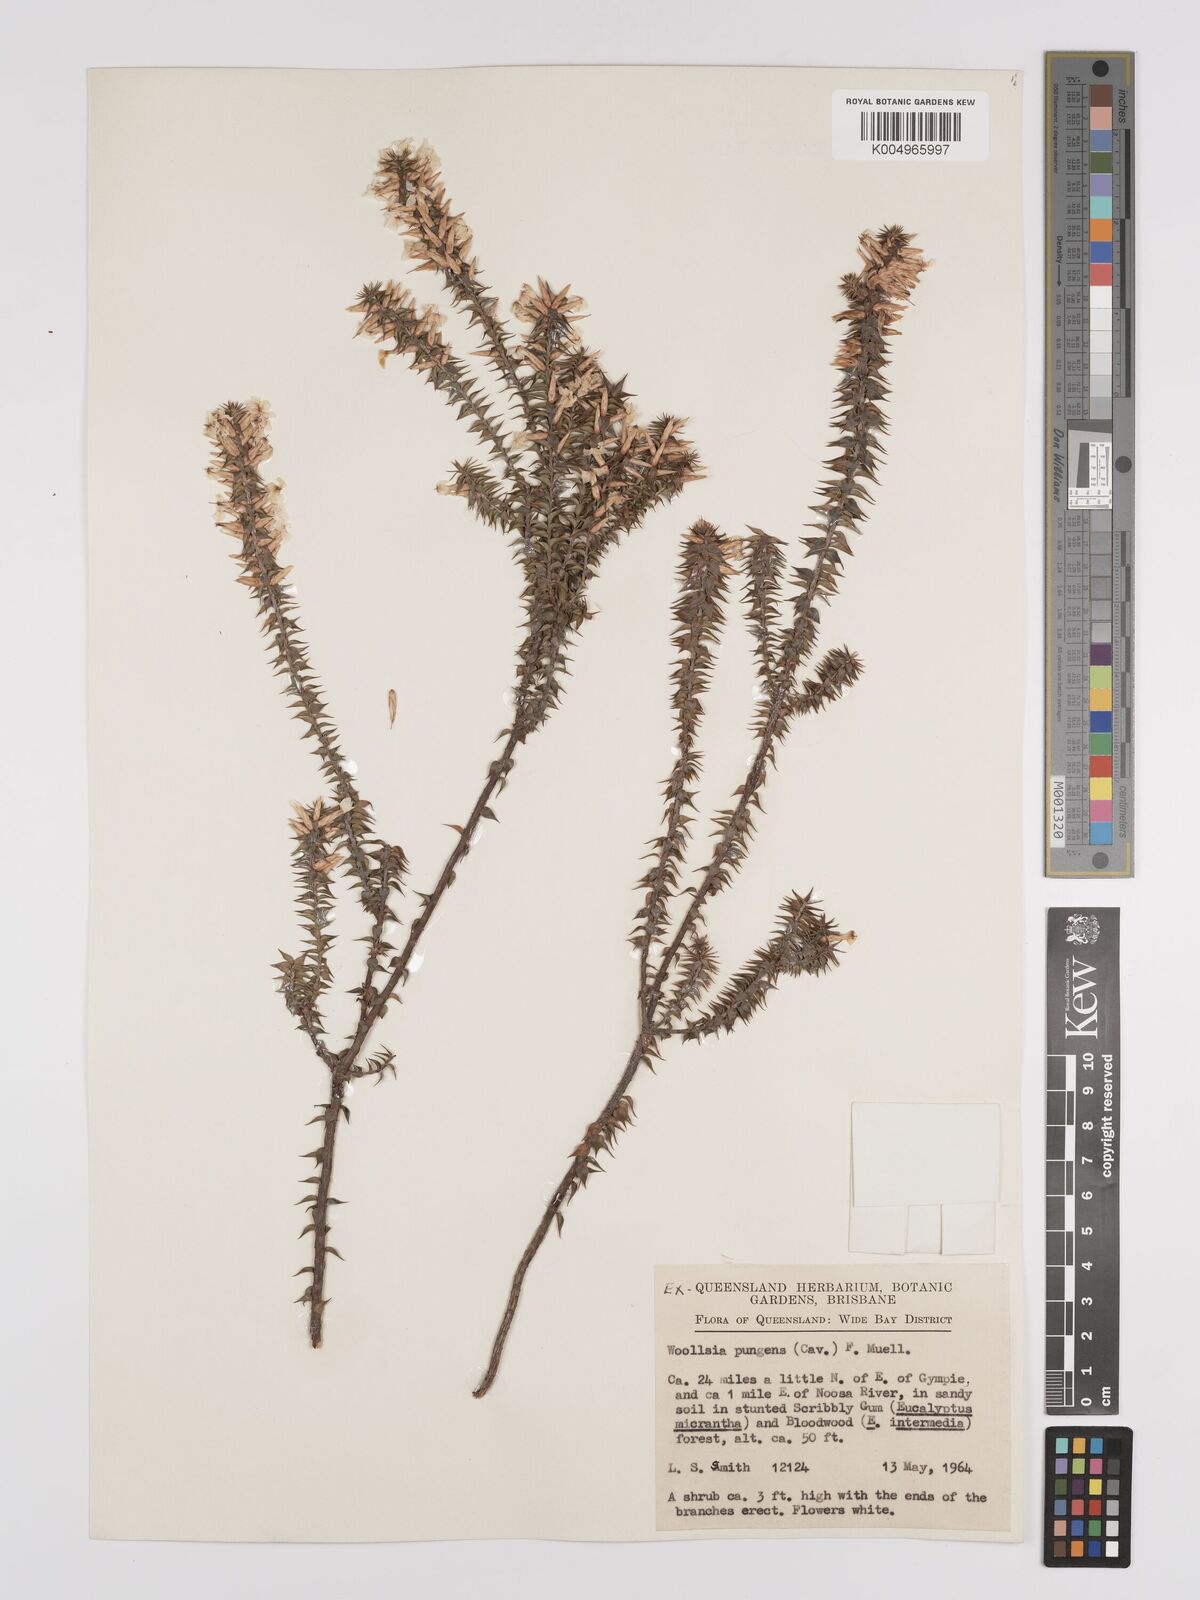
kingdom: Plantae
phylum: Tracheophyta
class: Magnoliopsida
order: Ericales
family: Ericaceae
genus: Woollsia
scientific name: Woollsia pungens
